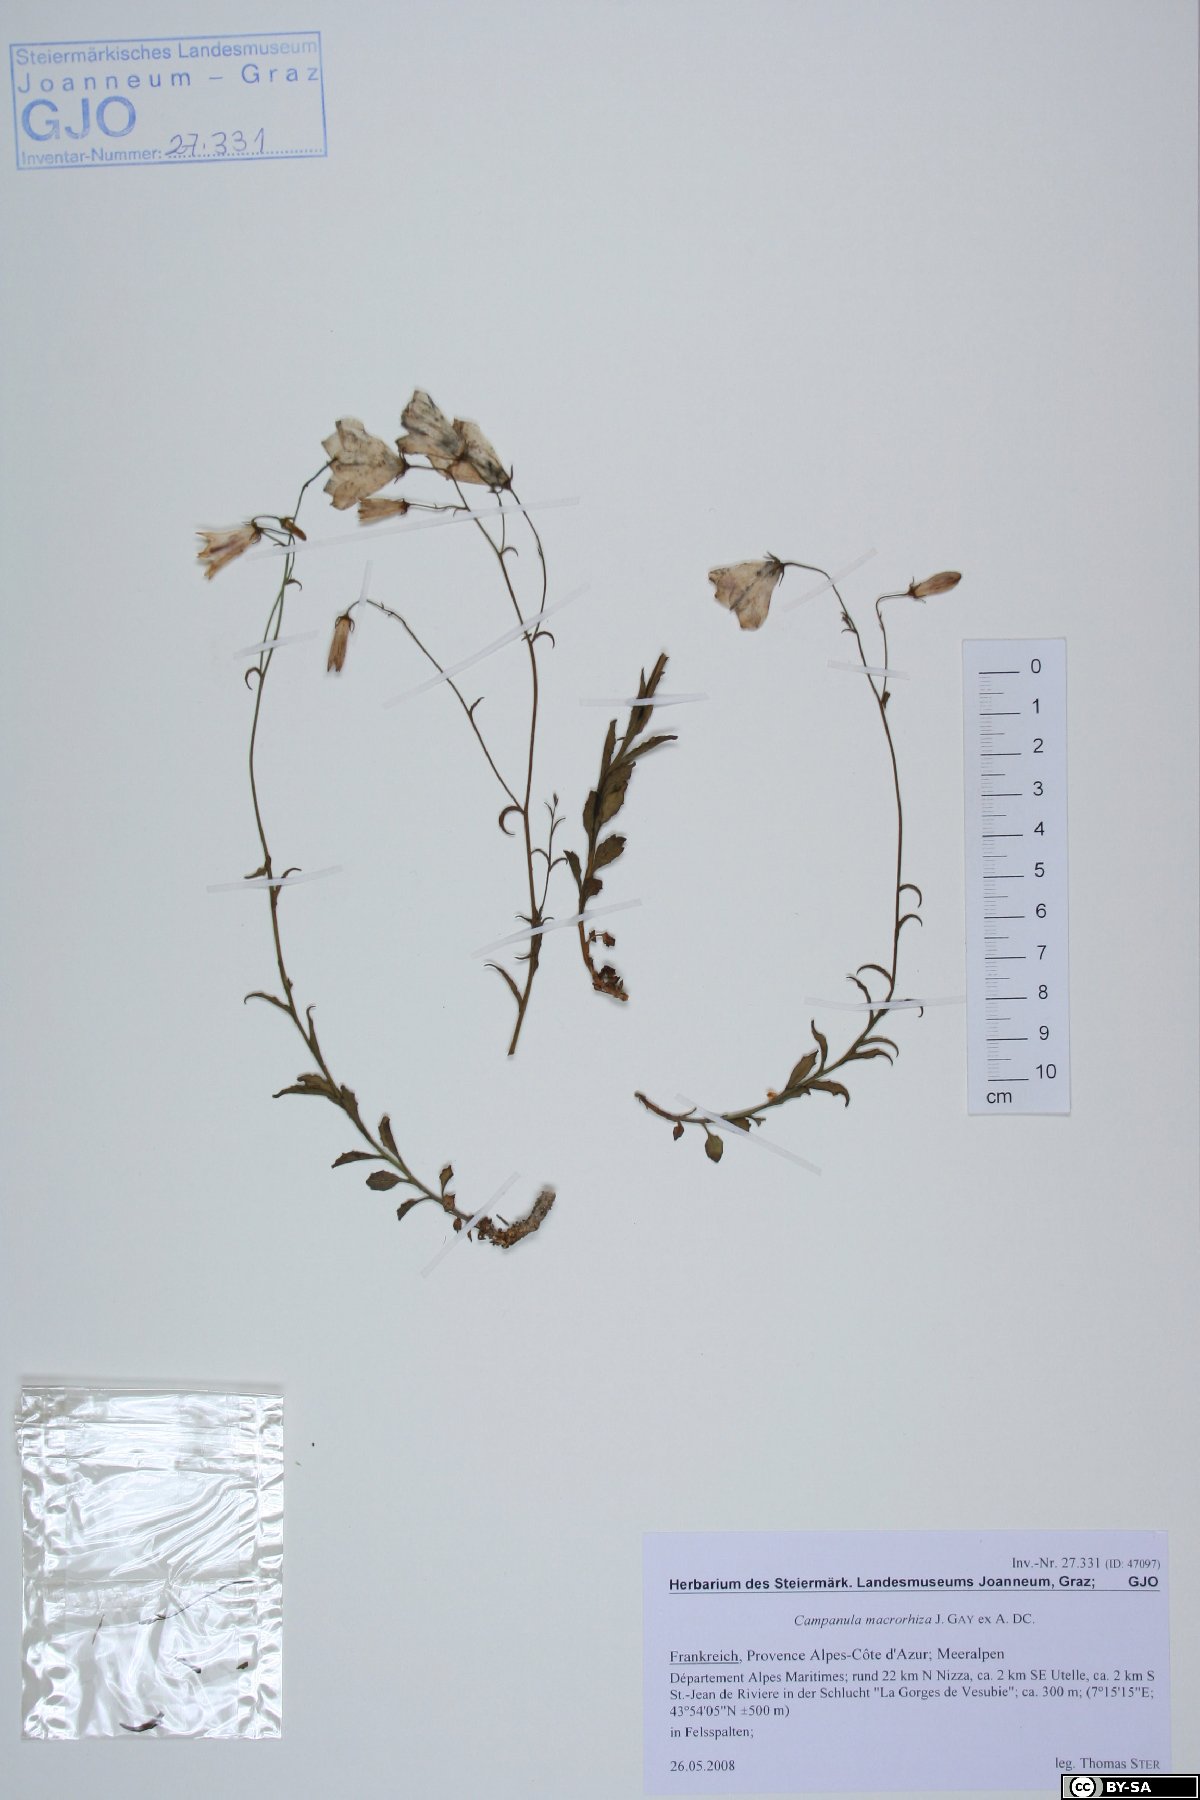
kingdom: Plantae
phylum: Tracheophyta
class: Magnoliopsida
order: Asterales
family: Campanulaceae
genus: Campanula
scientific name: Campanula macrorhiza
